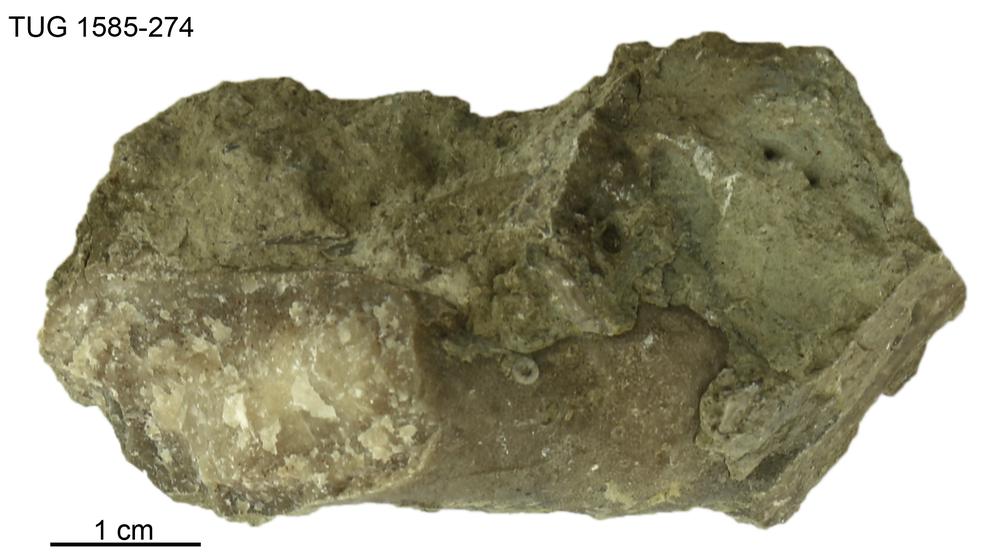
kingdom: Animalia
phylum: Bryozoa
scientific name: Bryozoa
